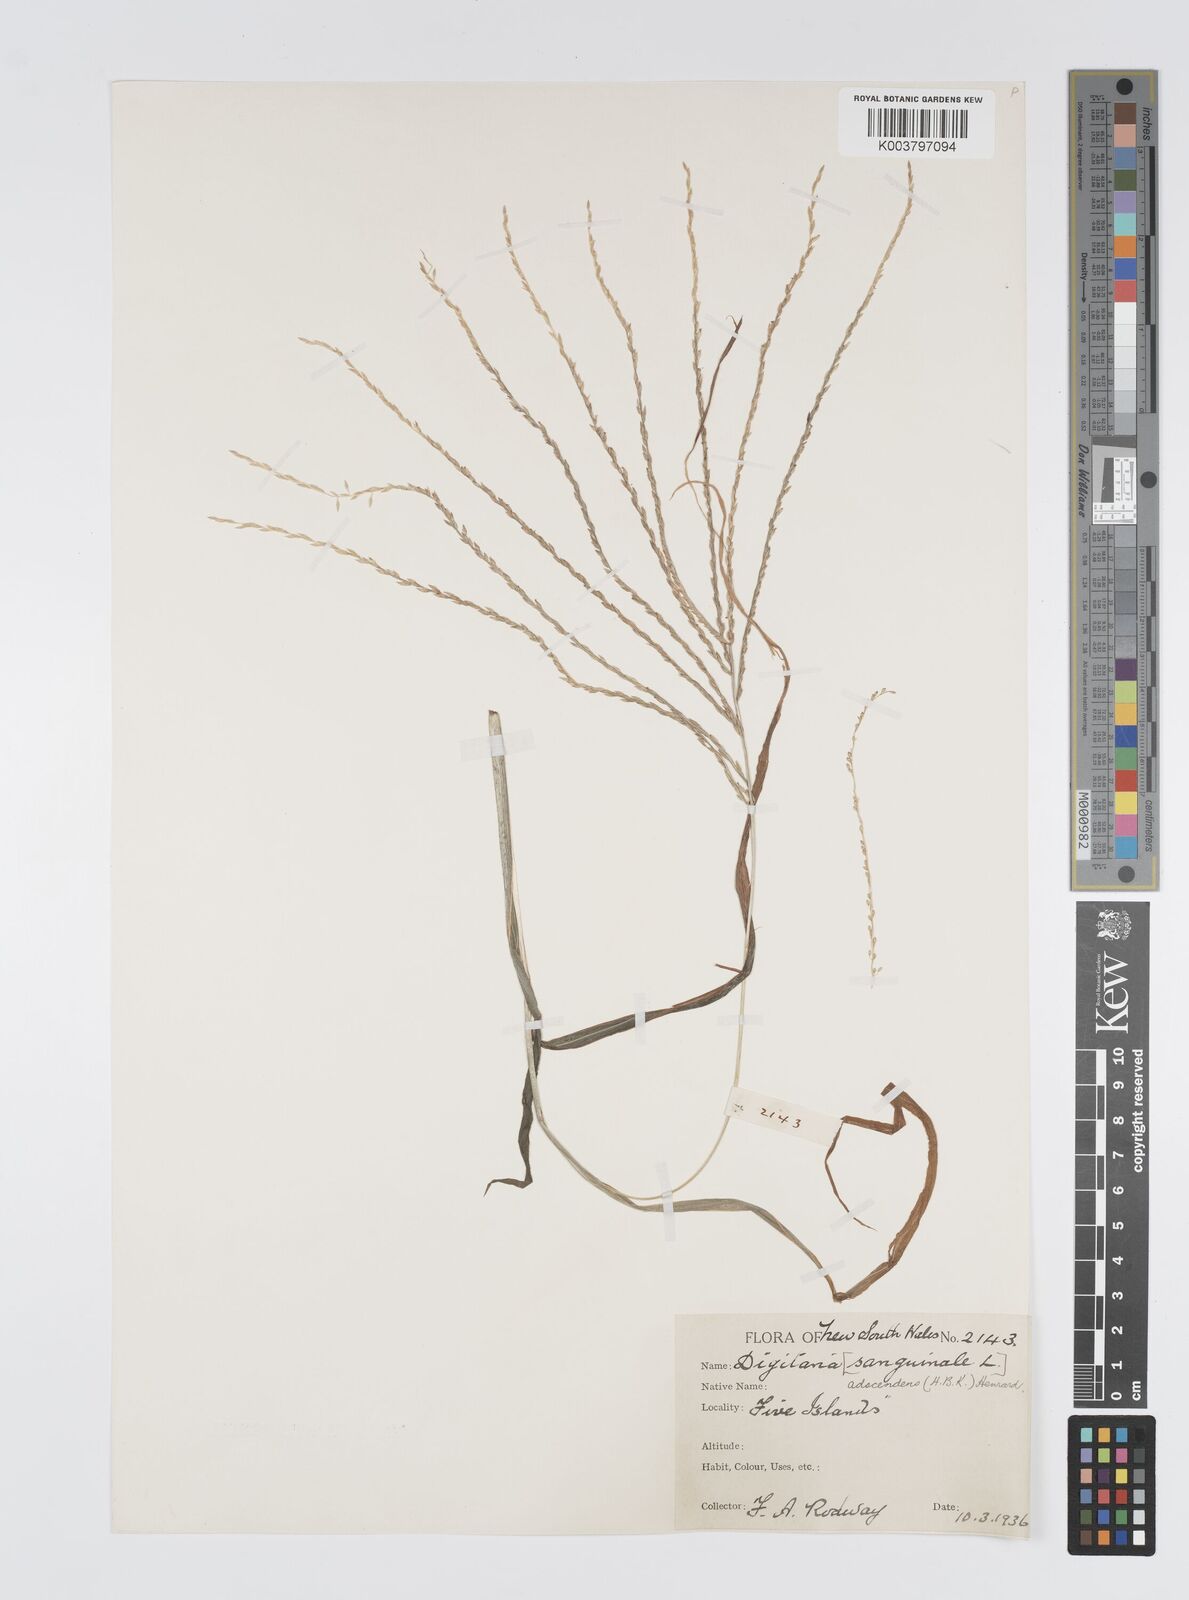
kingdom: Plantae
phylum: Tracheophyta
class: Liliopsida
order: Poales
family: Poaceae
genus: Digitaria
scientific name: Digitaria ciliaris
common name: Tropical finger-grass
